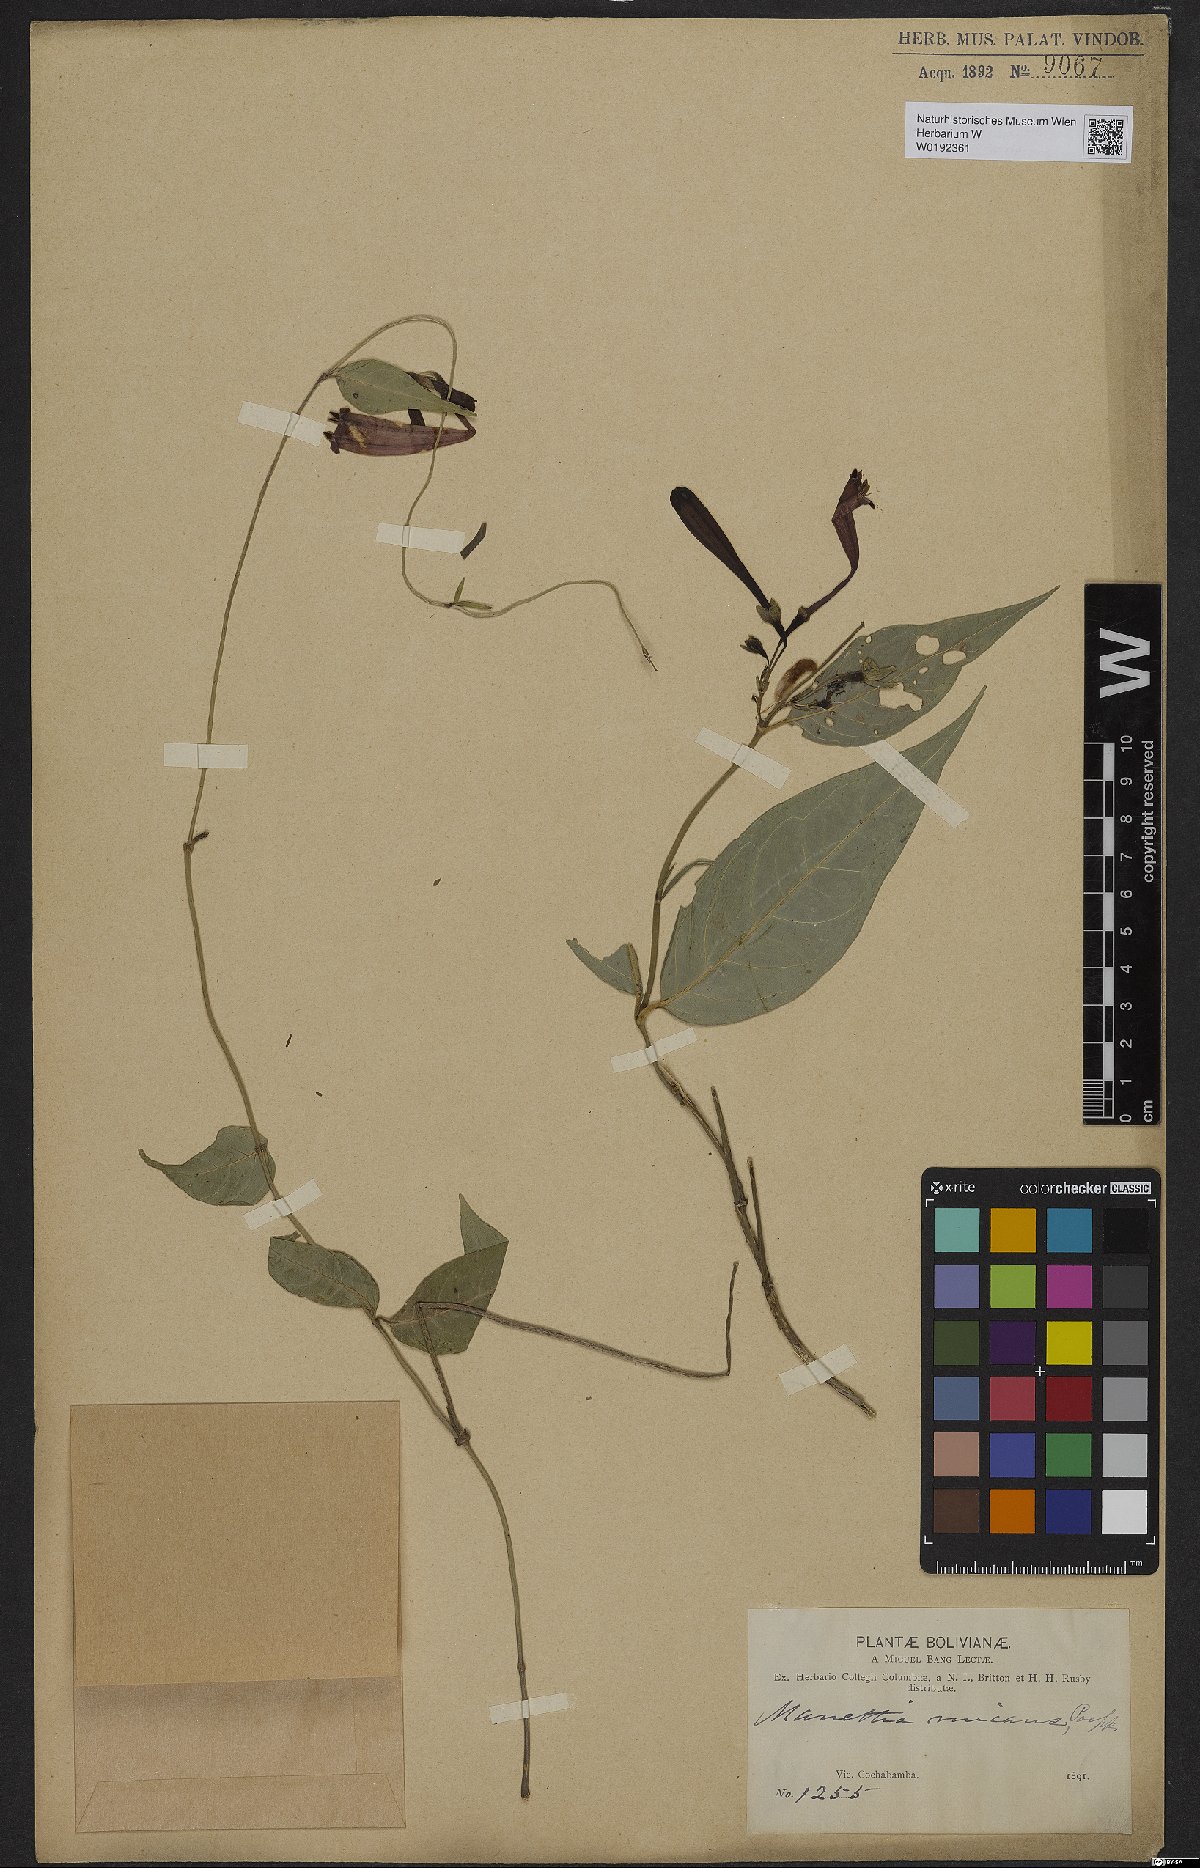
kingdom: Plantae
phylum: Tracheophyta
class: Magnoliopsida
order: Gentianales
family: Rubiaceae
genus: Manettia
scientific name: Manettia cordifolia
